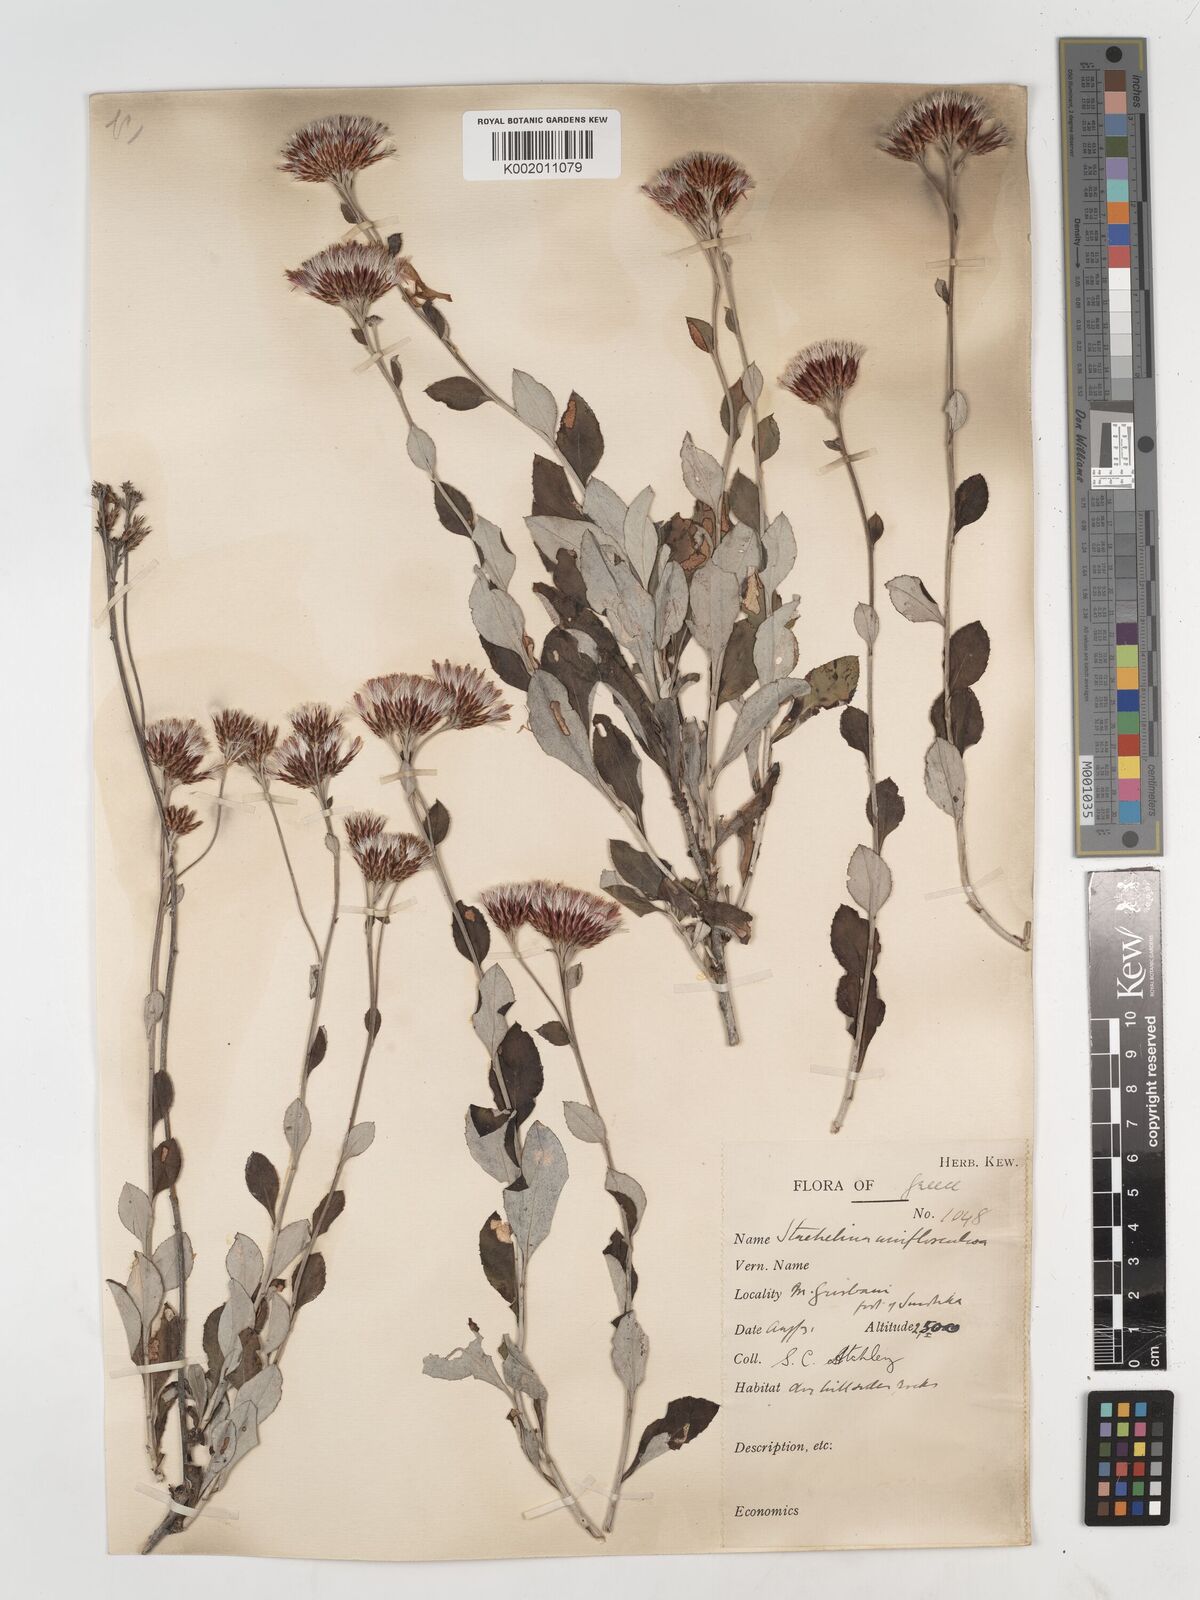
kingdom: Plantae
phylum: Tracheophyta
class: Magnoliopsida
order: Asterales
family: Asteraceae
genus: Staehelina
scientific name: Staehelina uniflosculosa
